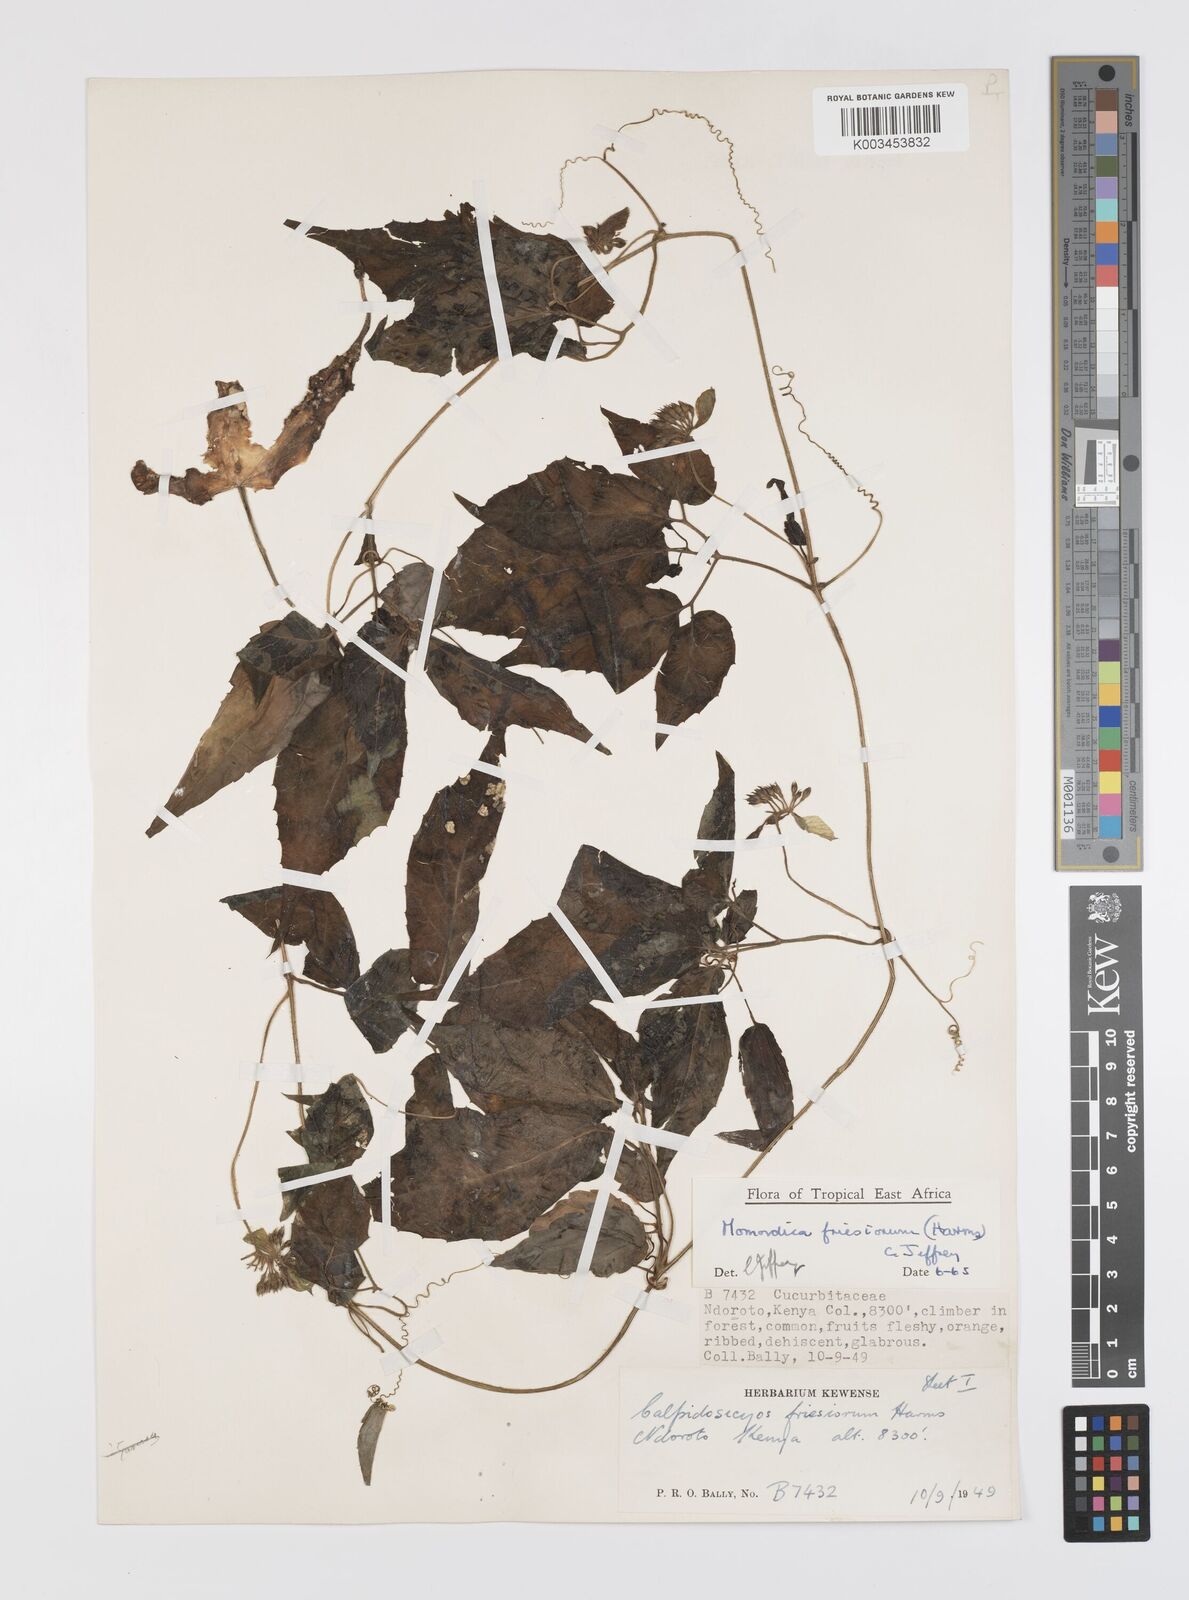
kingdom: Plantae
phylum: Tracheophyta
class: Magnoliopsida
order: Cucurbitales
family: Cucurbitaceae
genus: Momordica
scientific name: Momordica friesiorum
